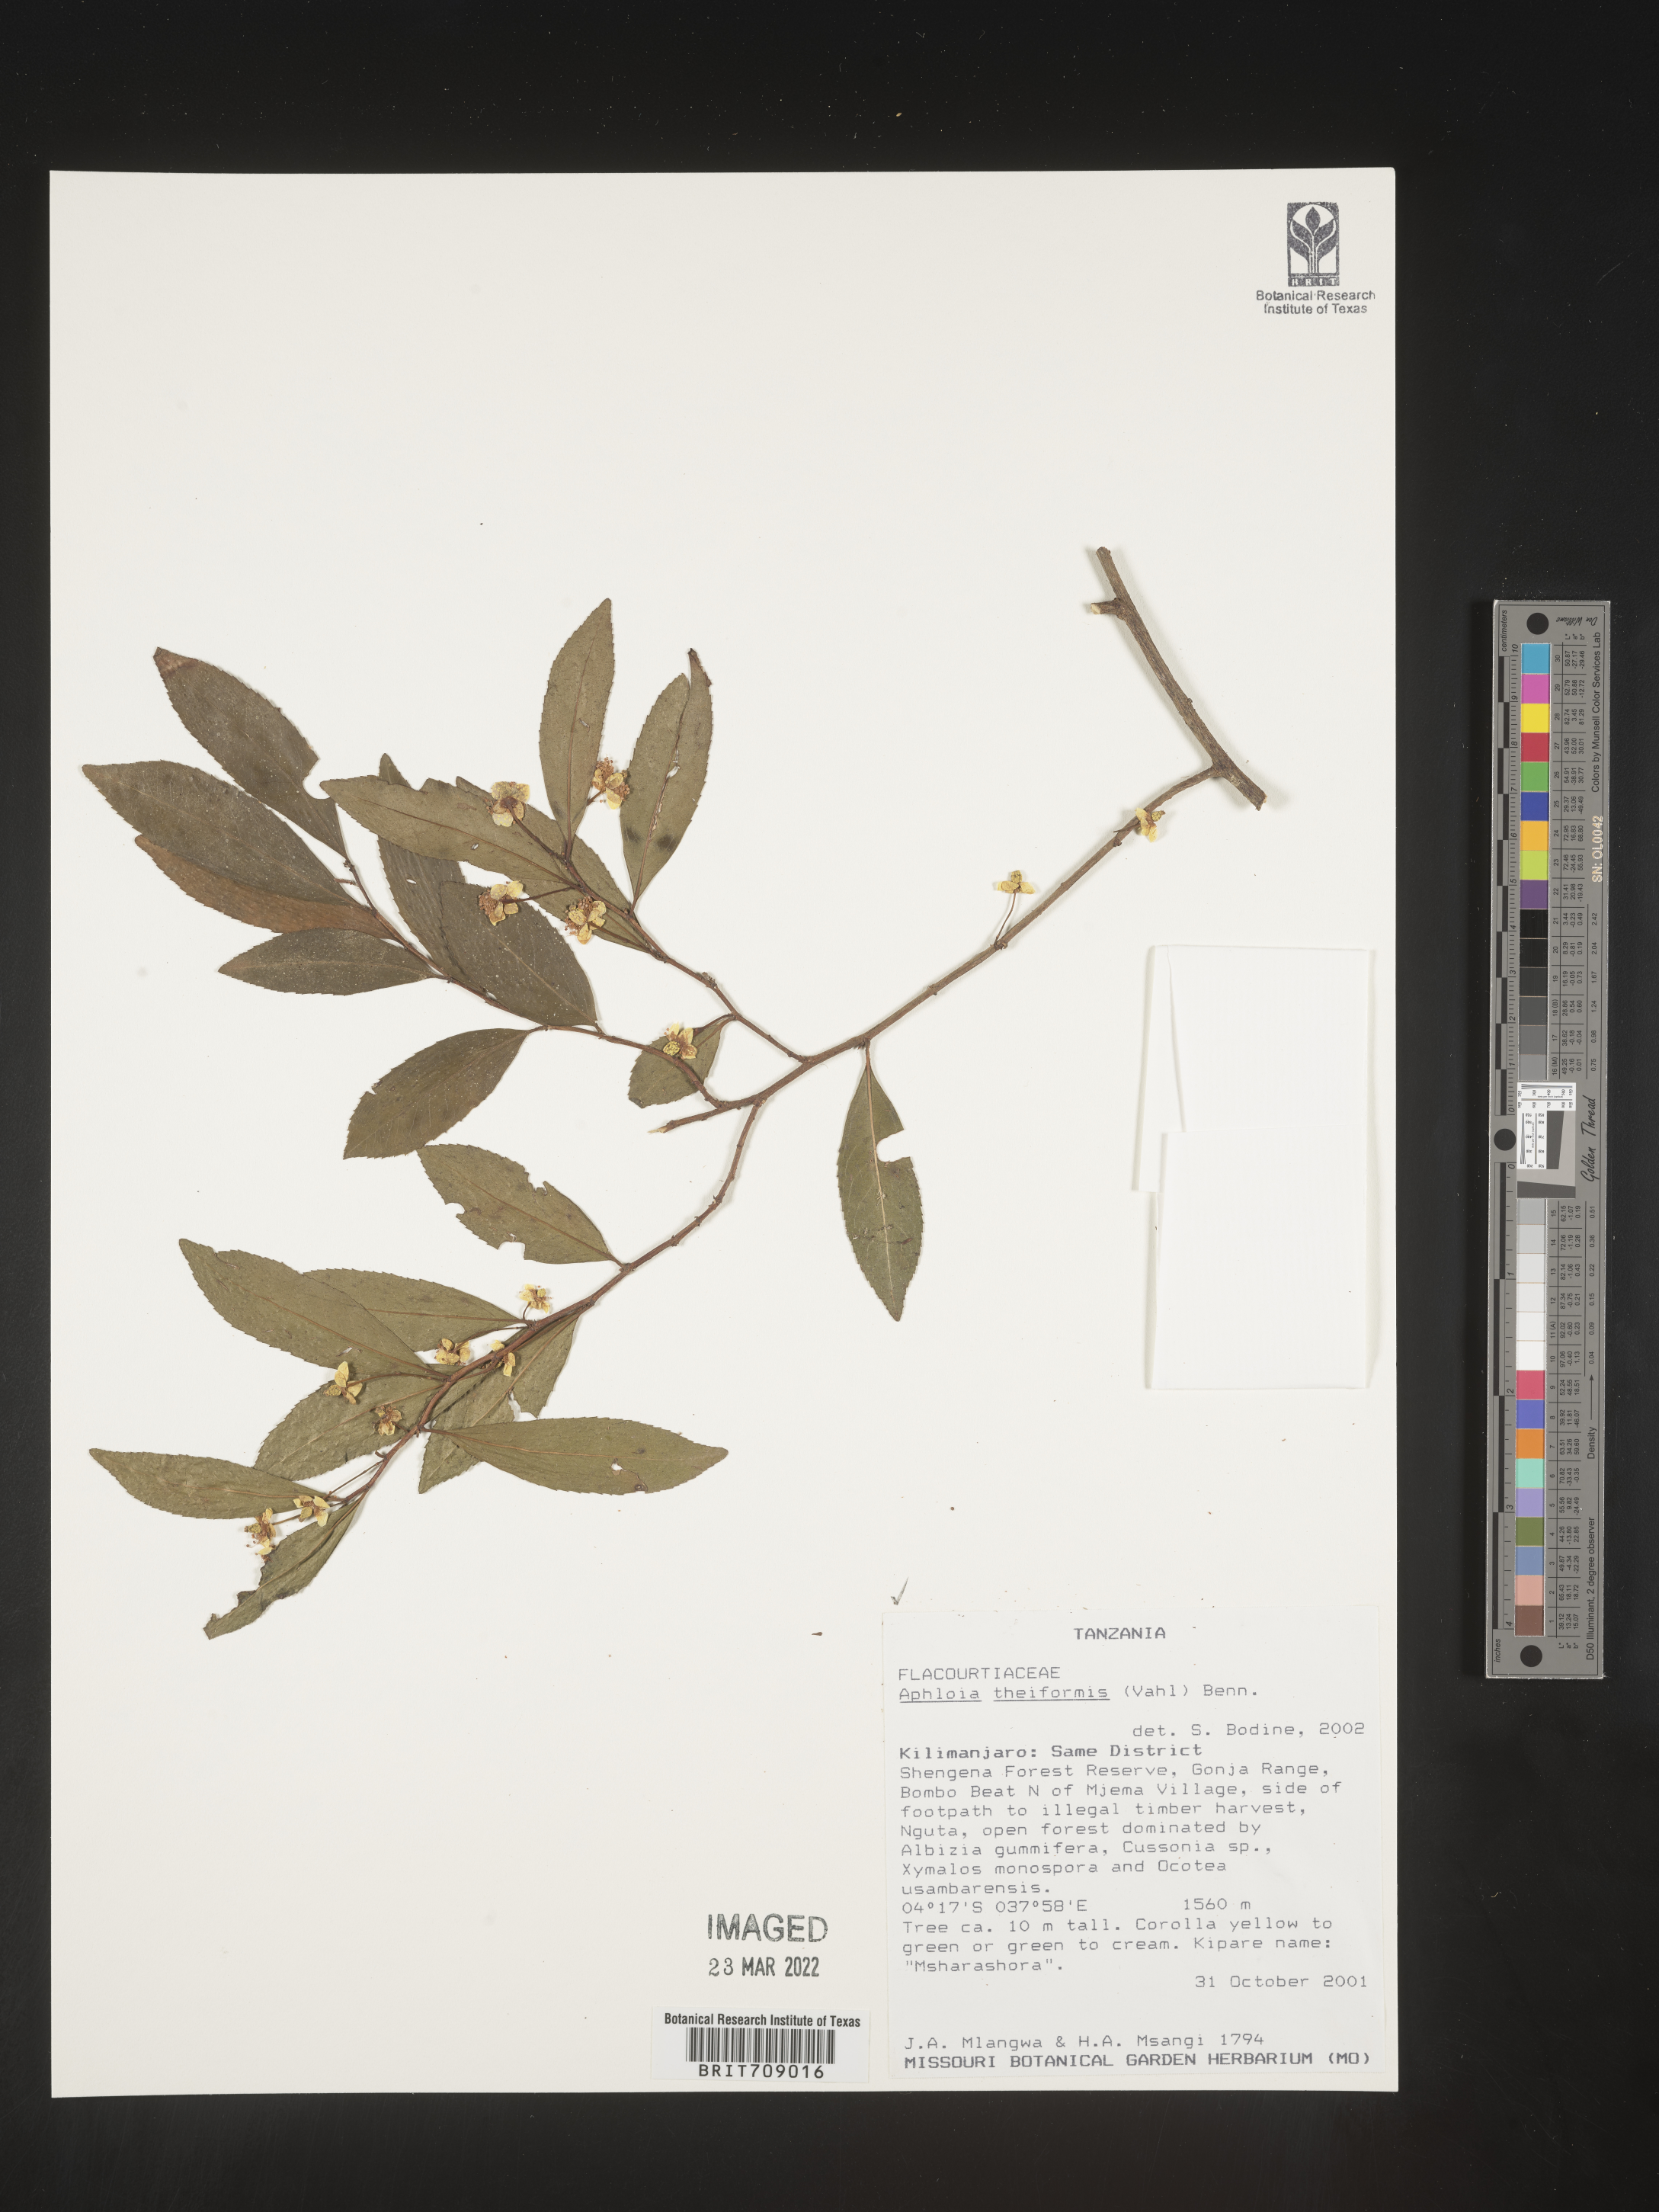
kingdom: Plantae
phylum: Tracheophyta
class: Magnoliopsida
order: Crossosomatales
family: Aphloiaceae
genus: Aphloia
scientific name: Aphloia
